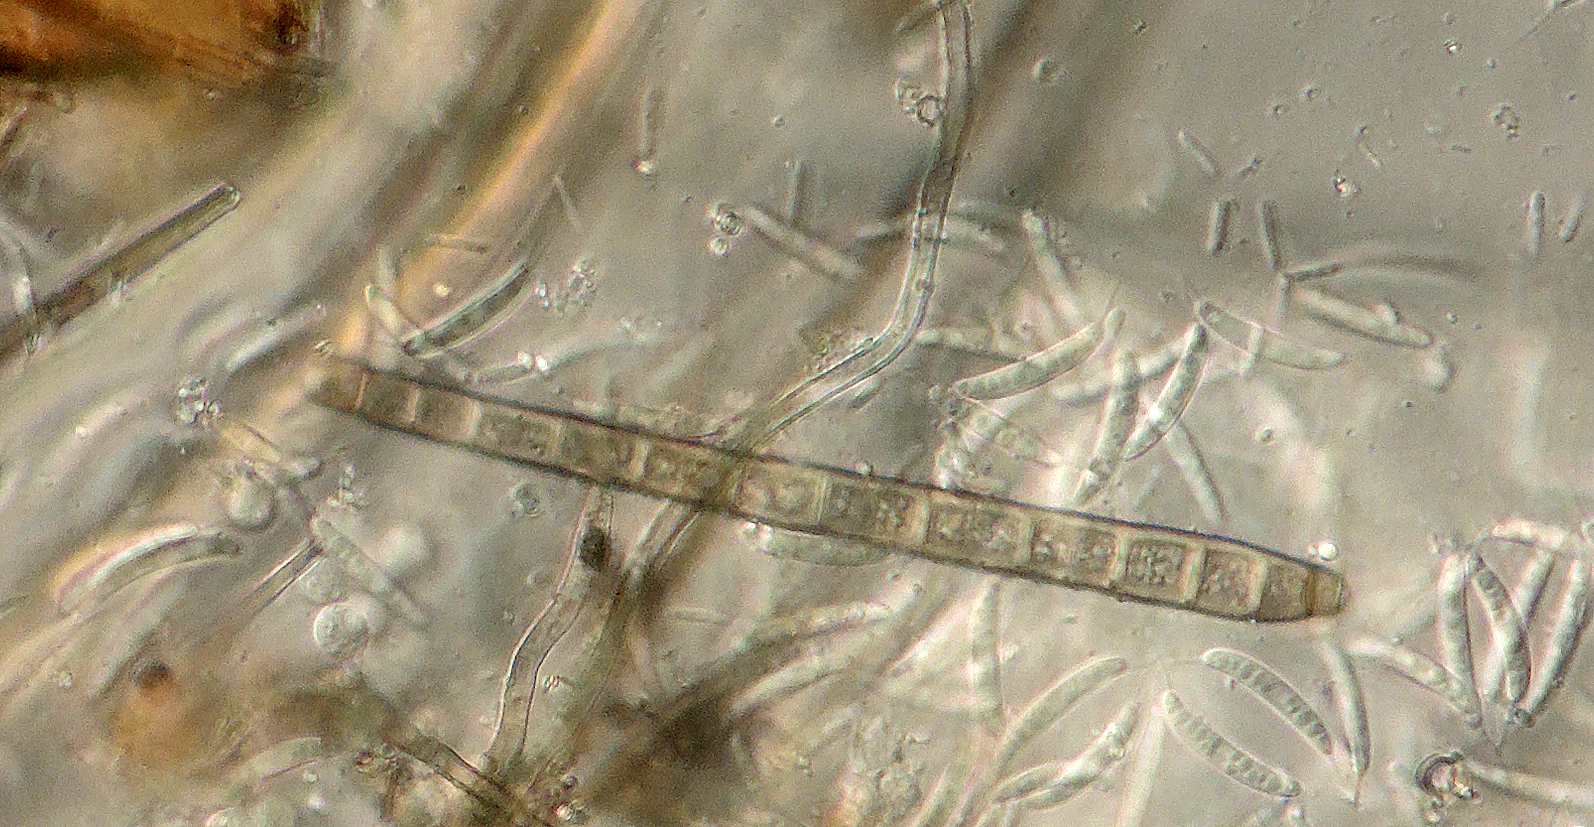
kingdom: Fungi
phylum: Ascomycota
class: Dothideomycetes
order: Pleosporales
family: Melanommataceae
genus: Camposporium
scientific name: Camposporium pellucidum
